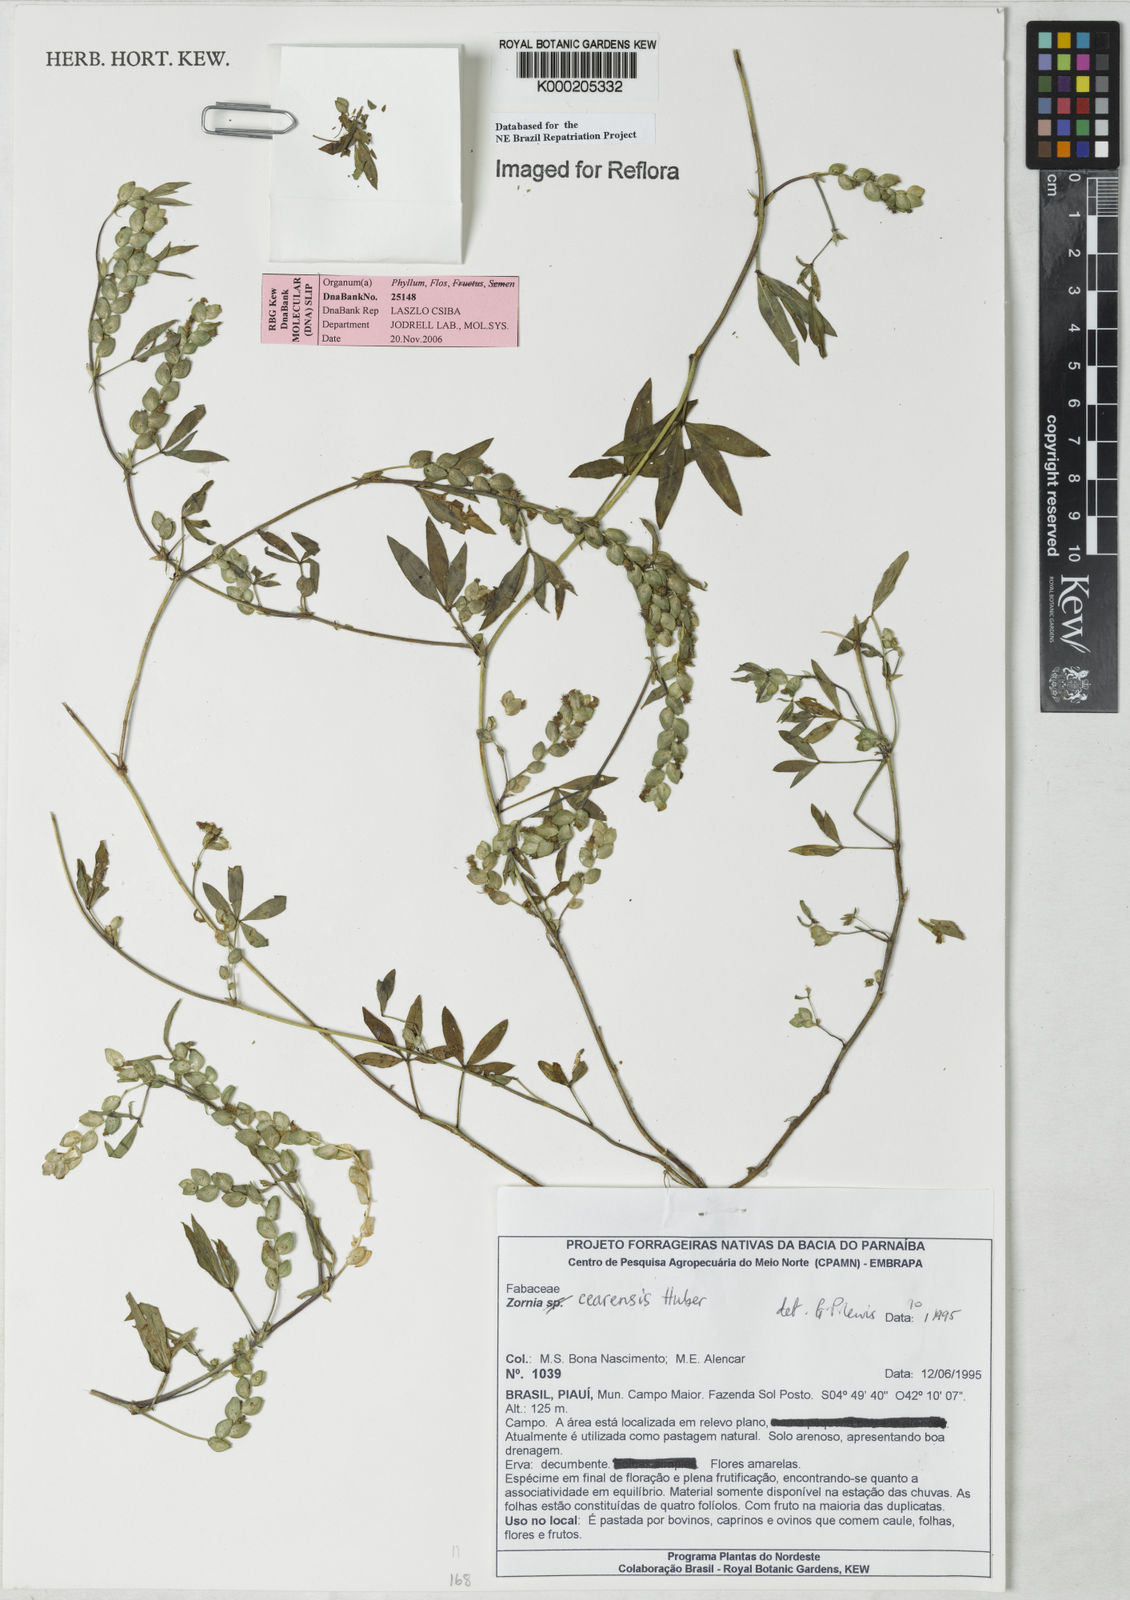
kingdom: Plantae
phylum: Tracheophyta
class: Magnoliopsida
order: Fabales
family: Fabaceae
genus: Zornia
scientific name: Zornia cearensis
